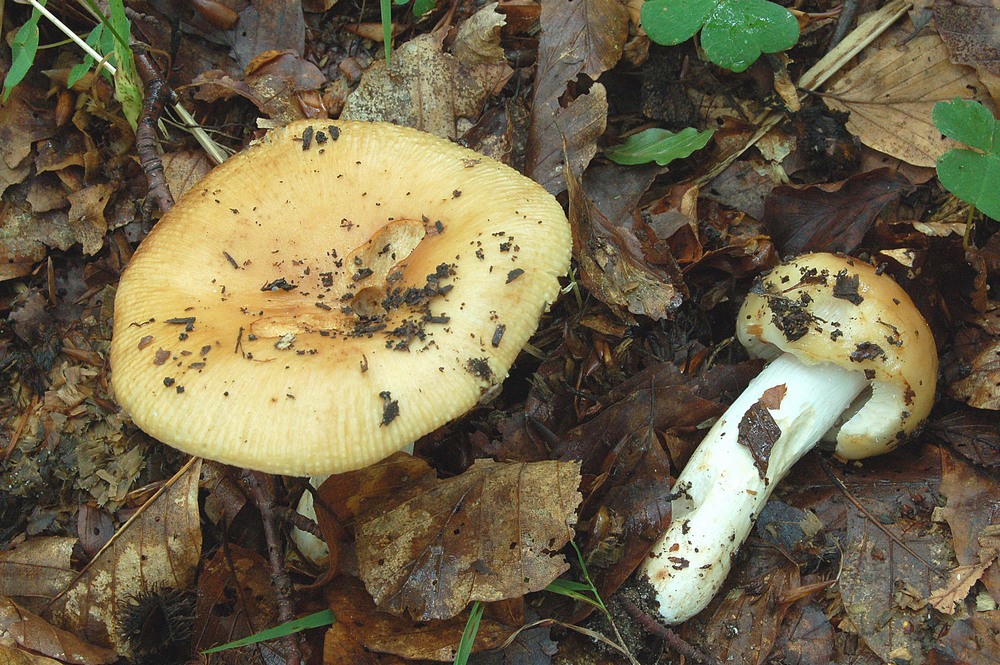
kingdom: Fungi
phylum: Basidiomycota
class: Agaricomycetes
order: Russulales
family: Russulaceae
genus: Russula
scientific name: Russula farinipes
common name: gul kam-skørhat
